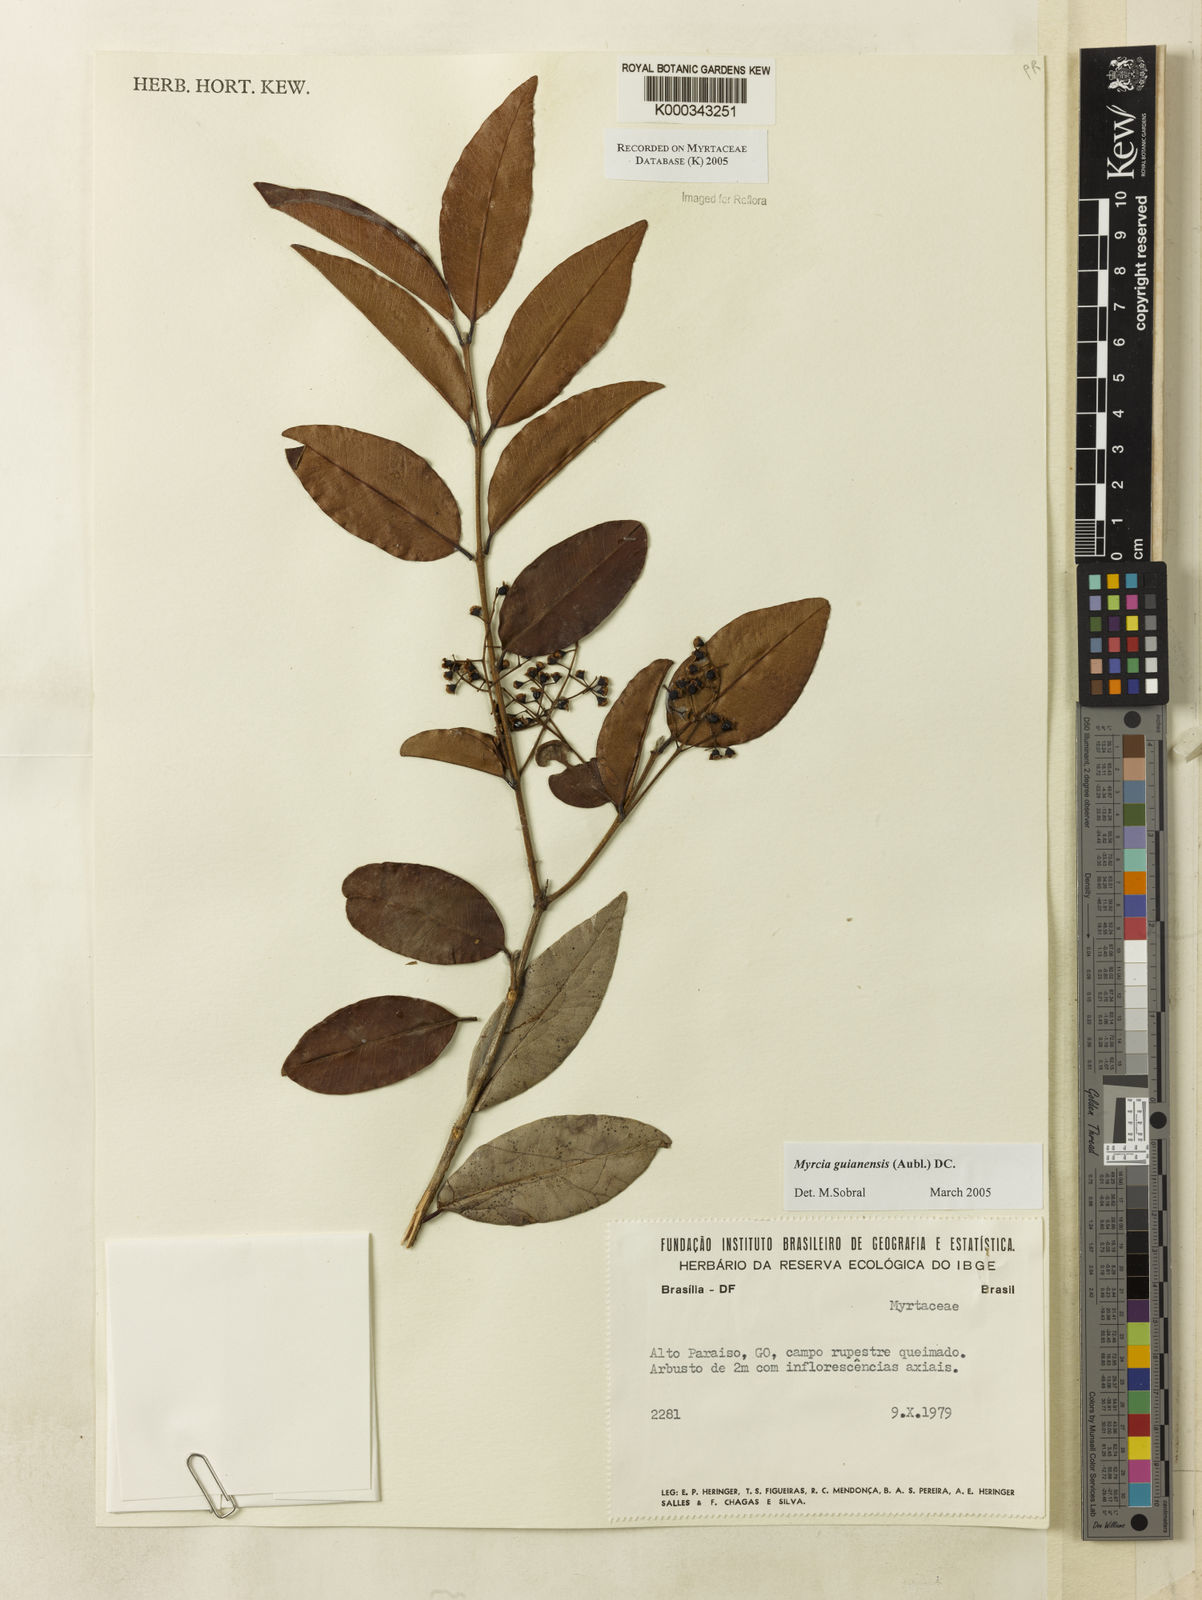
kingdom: Plantae
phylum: Tracheophyta
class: Magnoliopsida
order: Myrtales
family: Myrtaceae
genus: Myrcia
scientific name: Myrcia guianensis
